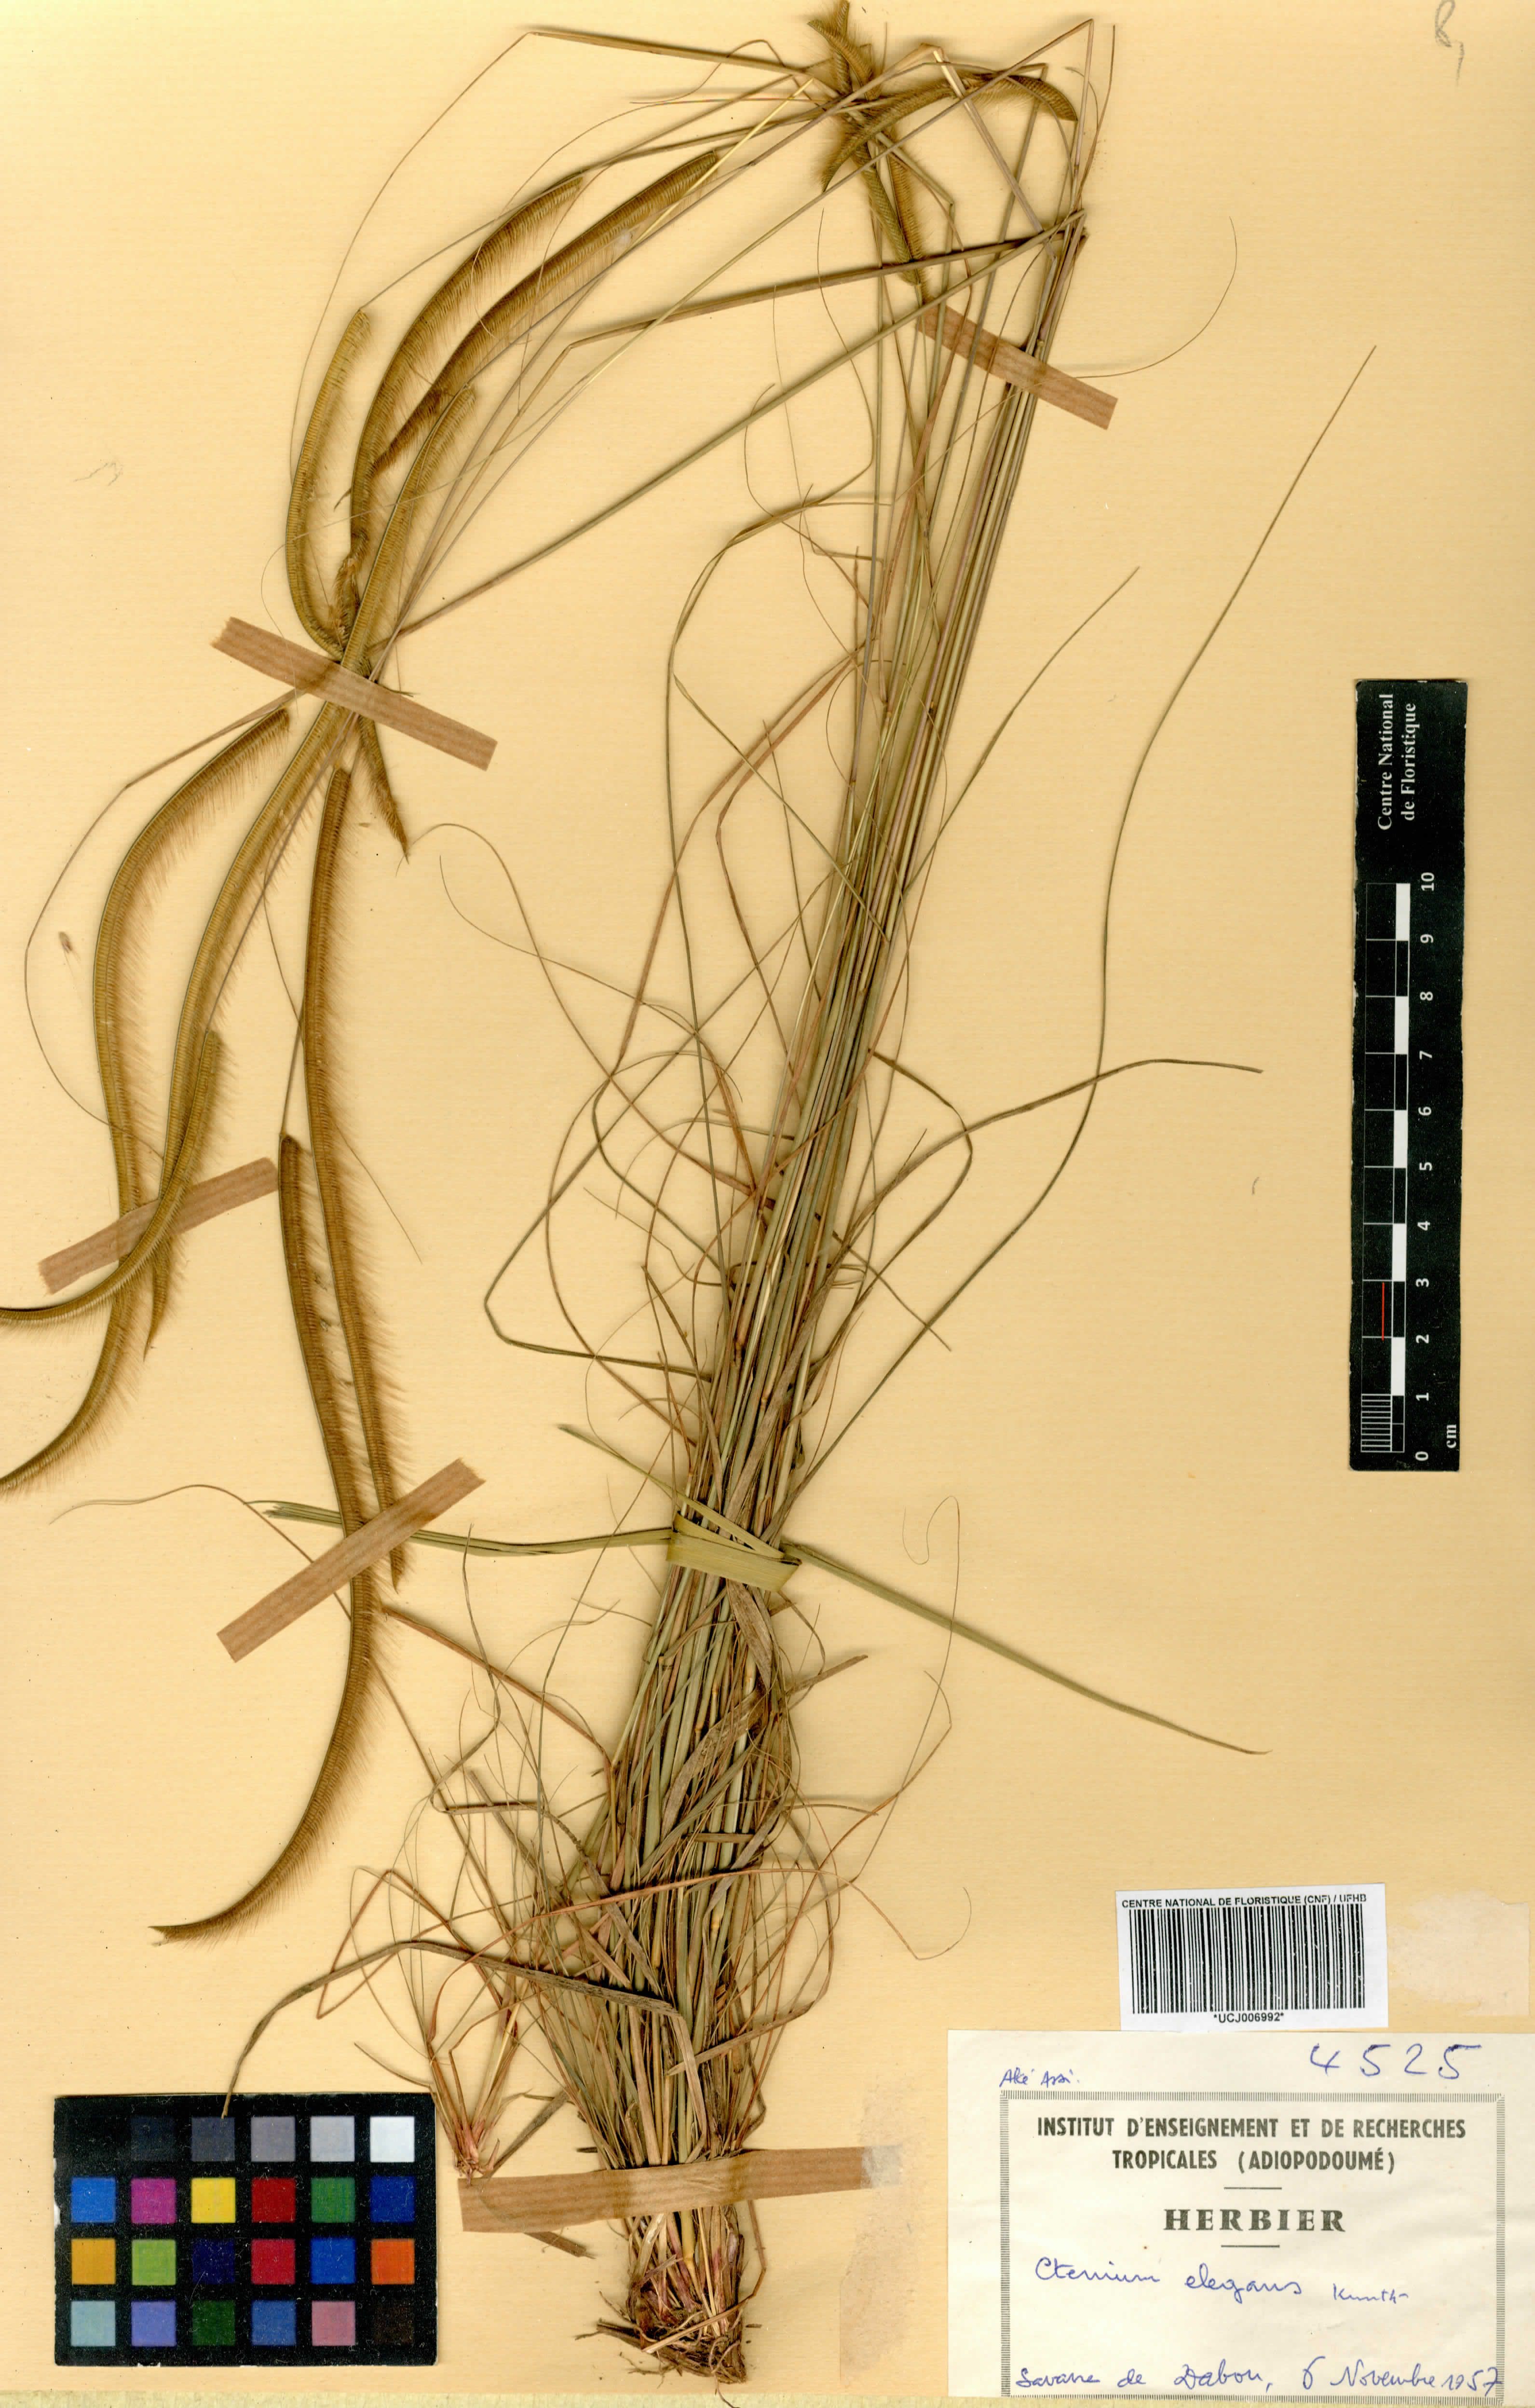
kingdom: Plantae
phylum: Tracheophyta
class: Liliopsida
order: Poales
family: Poaceae
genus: Ctenium
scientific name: Ctenium elegans
